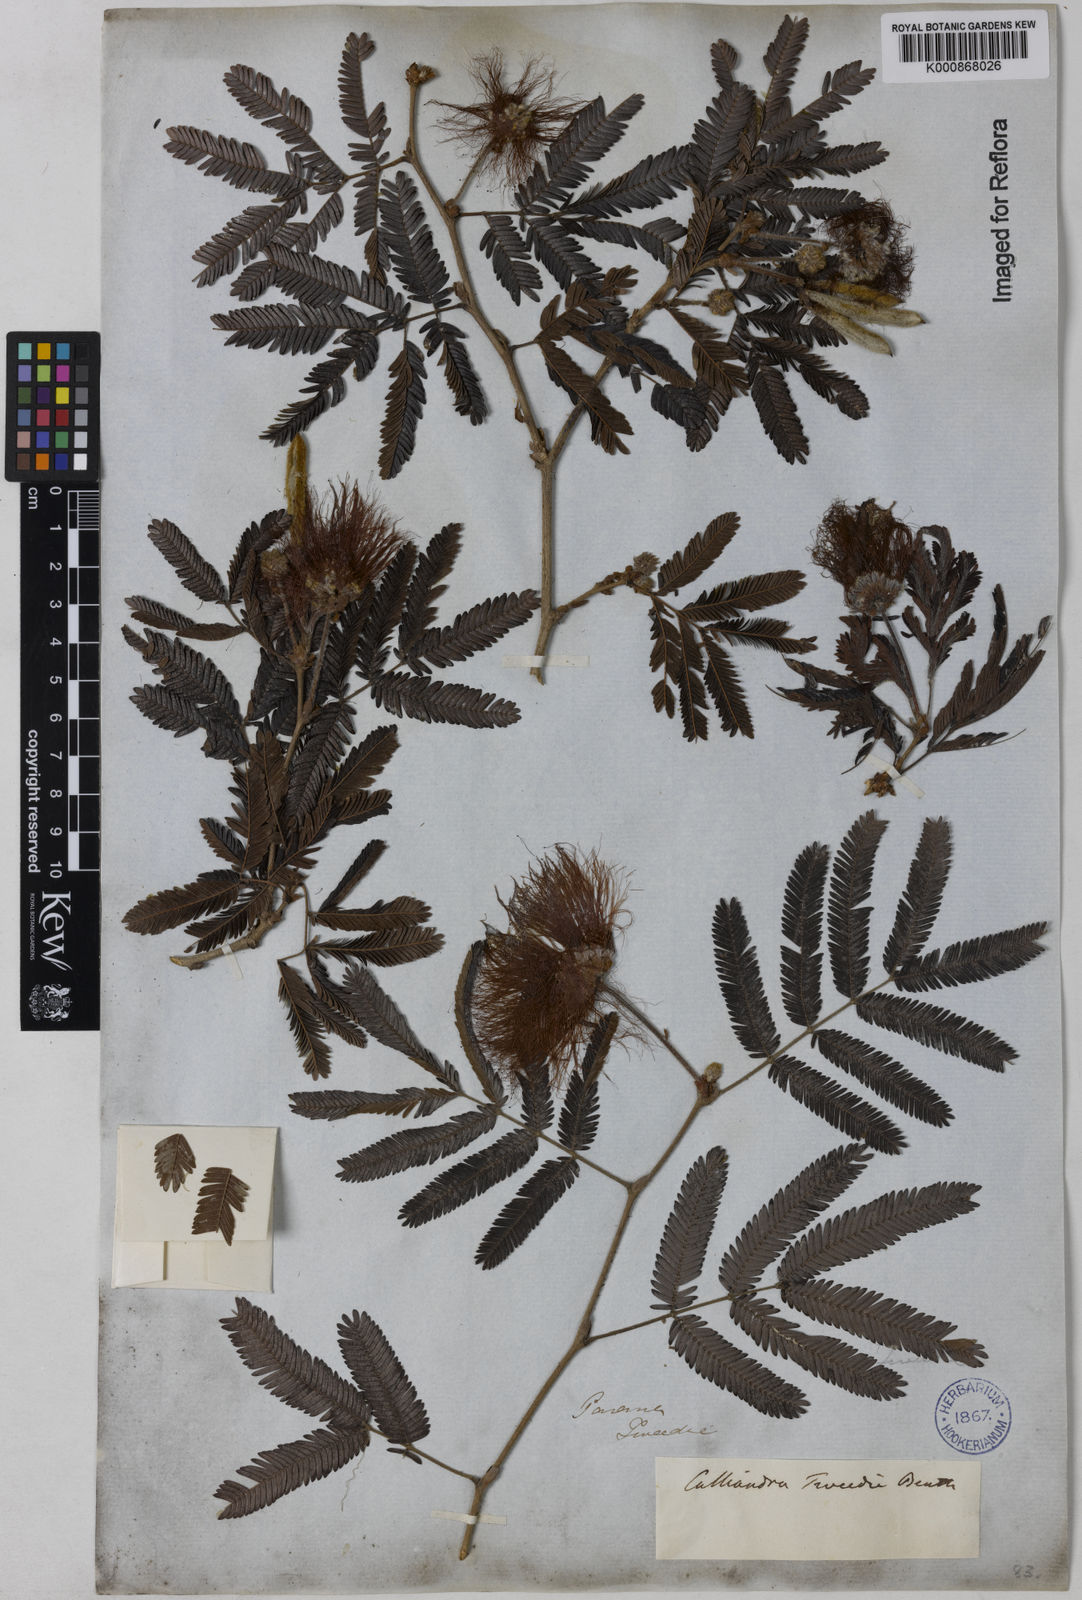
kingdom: Plantae
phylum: Tracheophyta
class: Magnoliopsida
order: Fabales
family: Fabaceae
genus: Calliandra
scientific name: Calliandra tweediei
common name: Mexican flamebush
